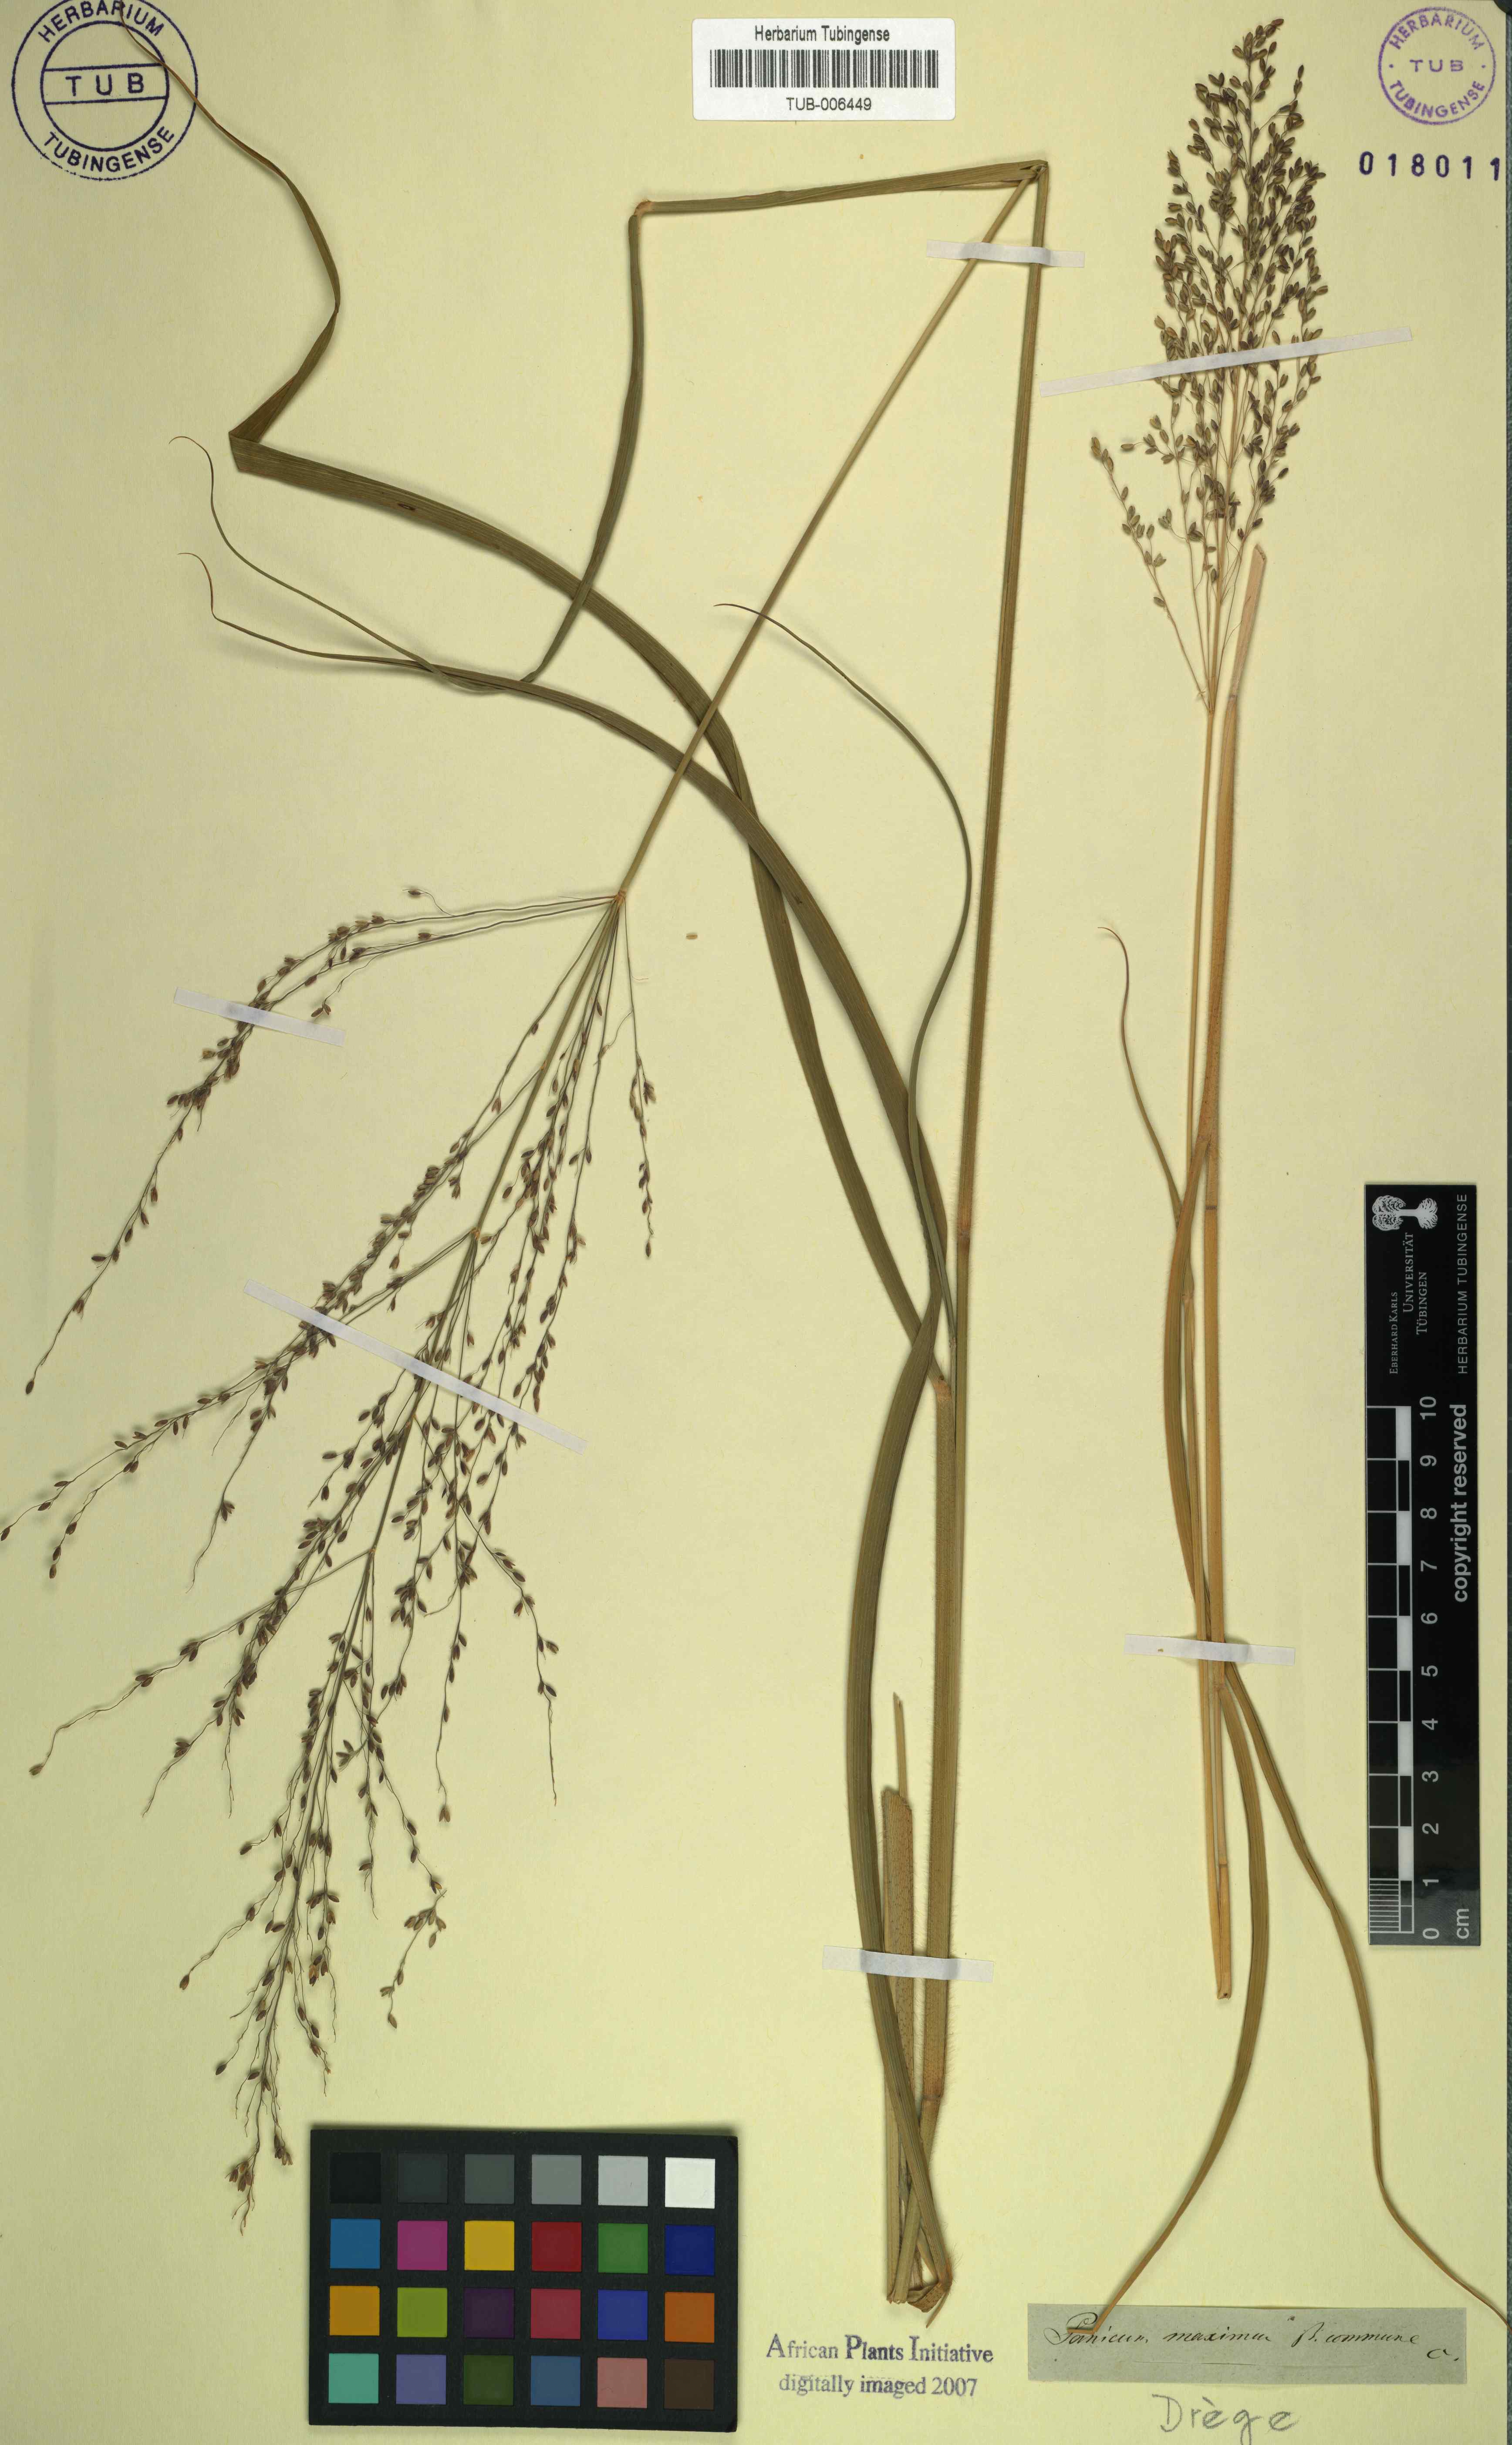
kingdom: Plantae
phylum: Tracheophyta
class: Liliopsida
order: Poales
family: Poaceae
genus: Megathyrsus
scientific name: Megathyrsus maximus
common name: Guineagrass
